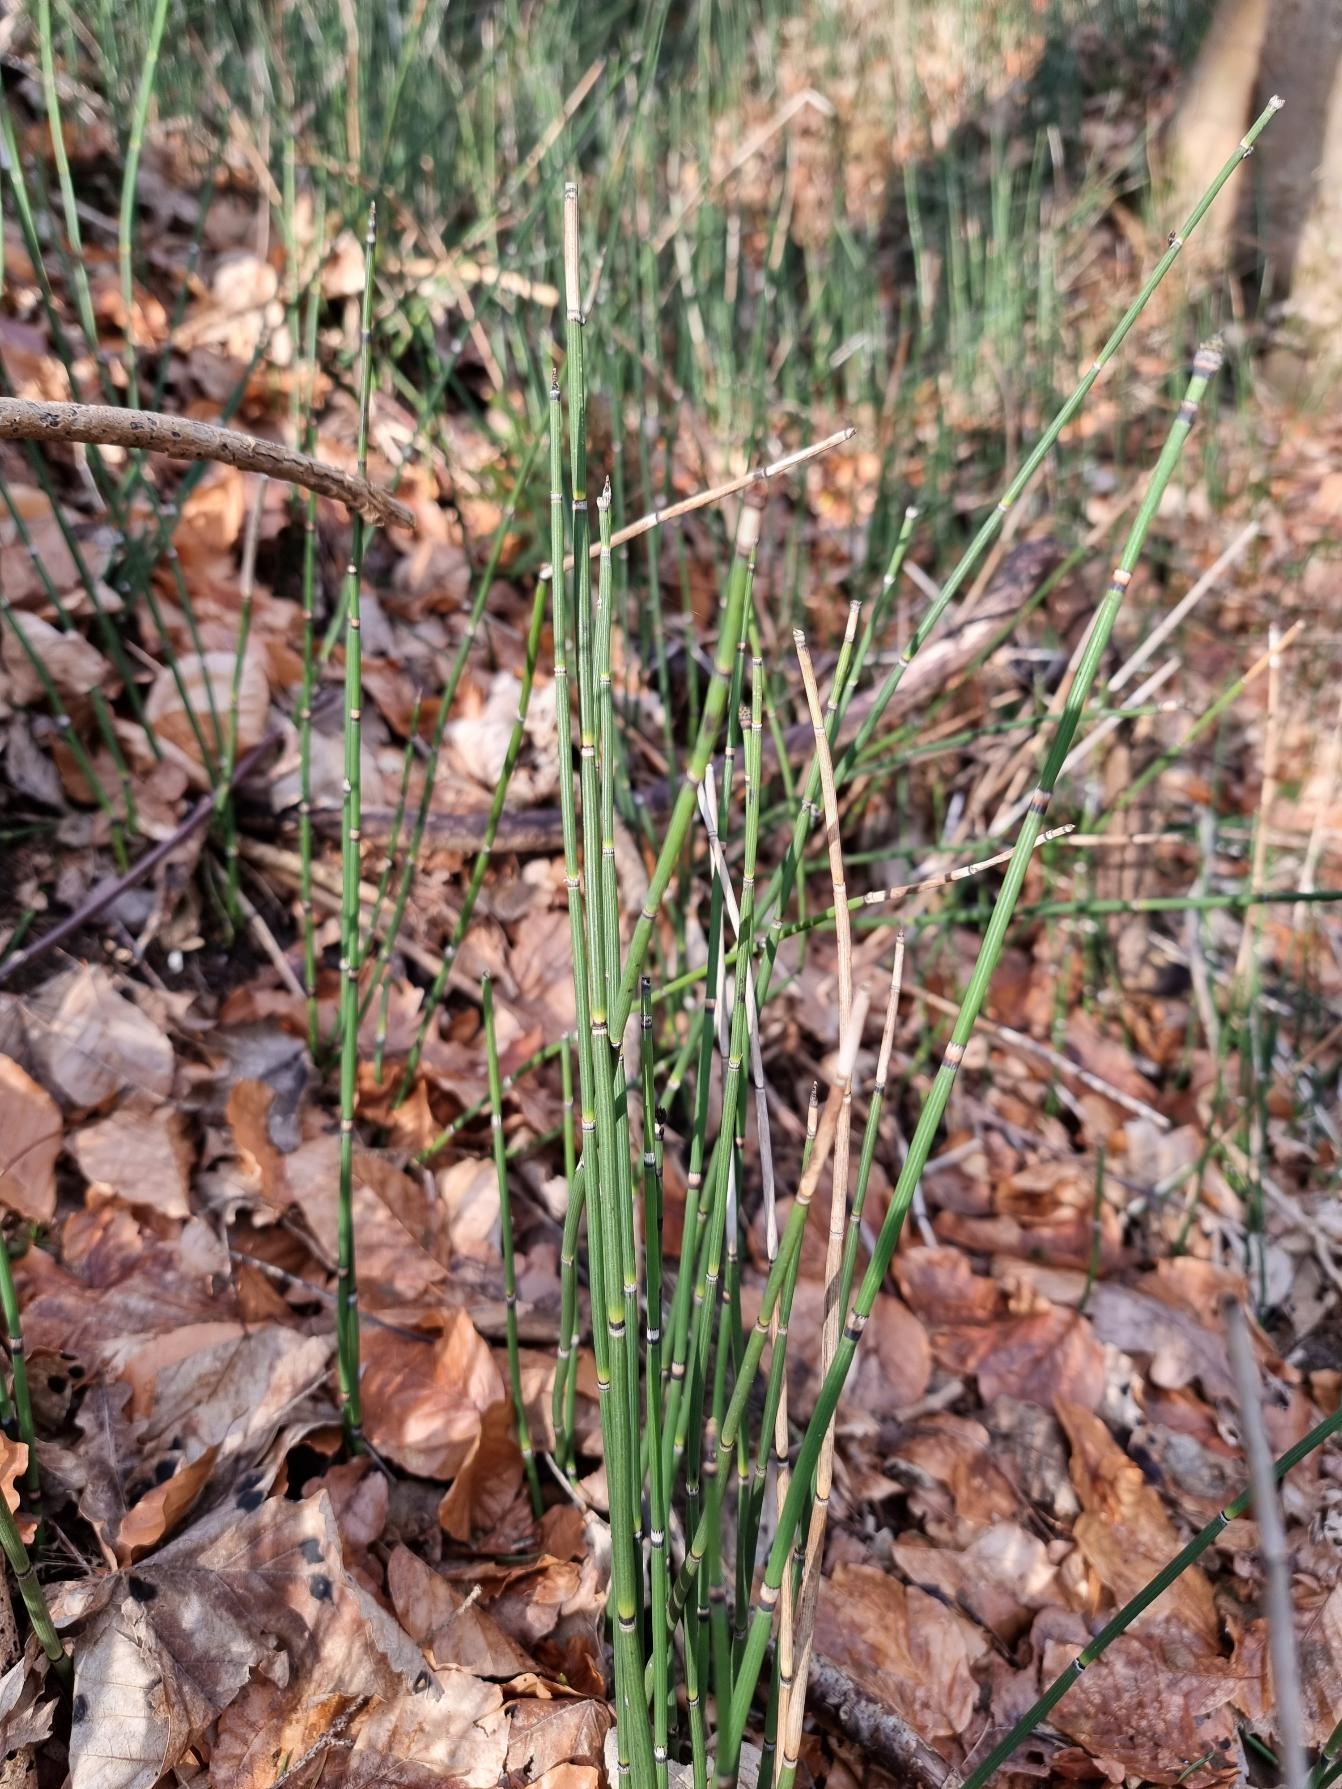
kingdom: Plantae
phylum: Tracheophyta
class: Polypodiopsida
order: Equisetales
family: Equisetaceae
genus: Equisetum
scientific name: Equisetum hyemale
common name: Skavgræs
